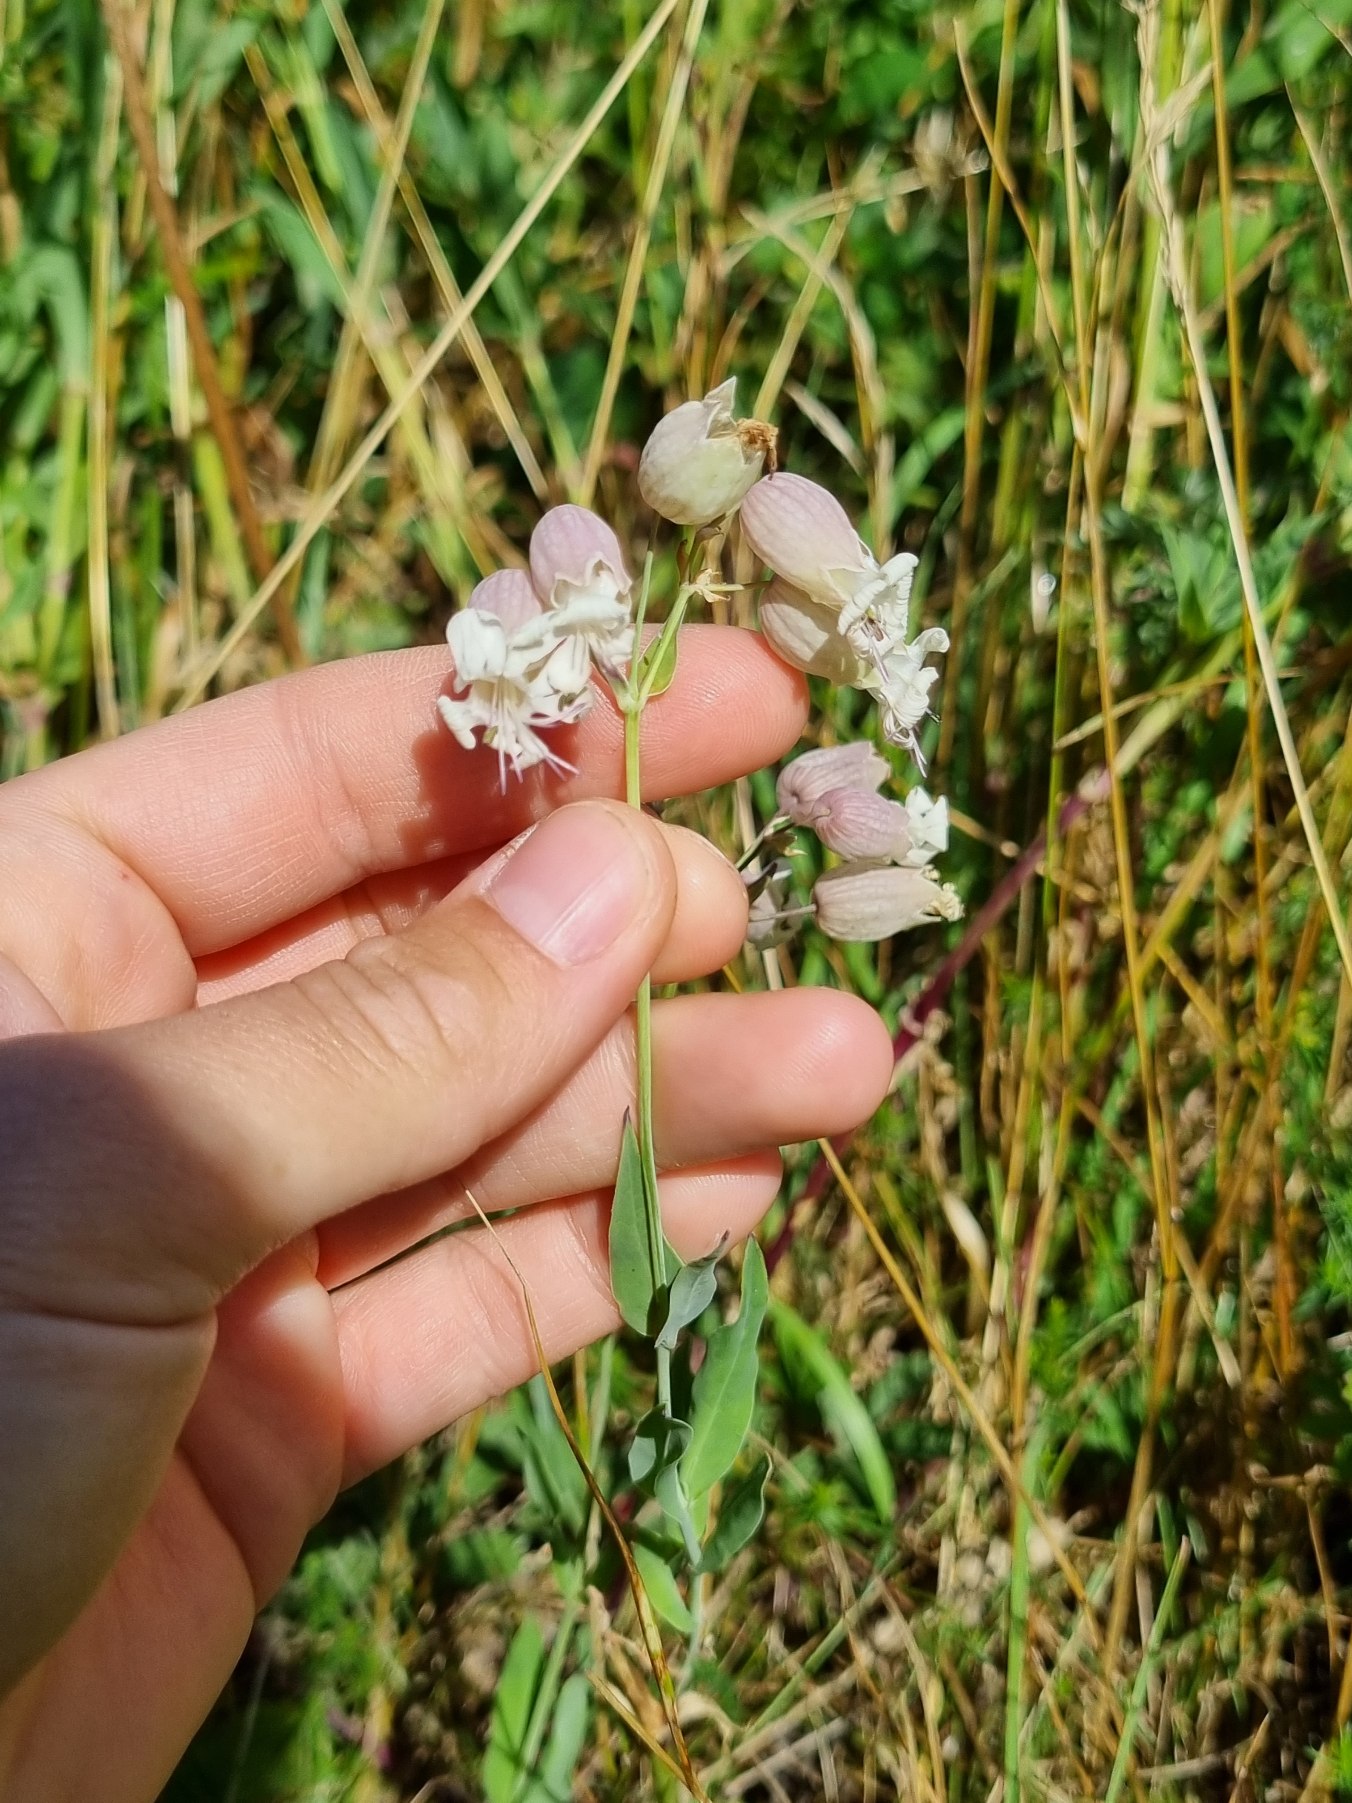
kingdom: Plantae
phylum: Tracheophyta
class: Magnoliopsida
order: Caryophyllales
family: Caryophyllaceae
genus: Silene
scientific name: Silene vulgaris
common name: Blæresmælde
